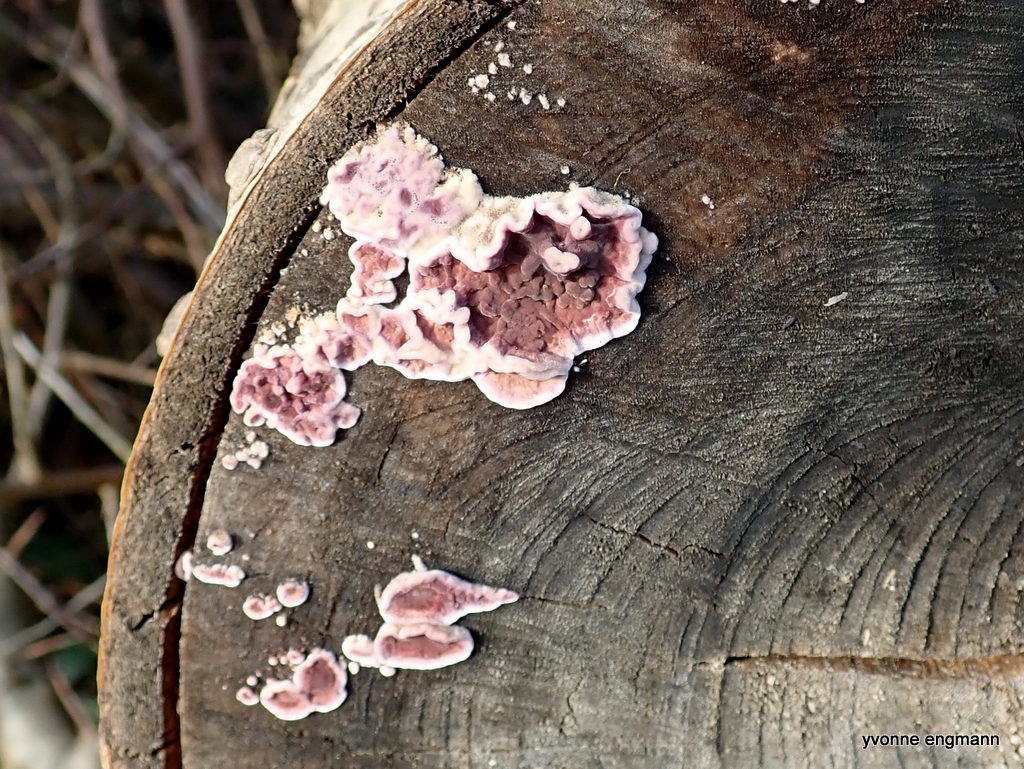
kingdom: Fungi
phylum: Basidiomycota
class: Agaricomycetes
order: Agaricales
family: Cyphellaceae
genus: Chondrostereum
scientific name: Chondrostereum purpureum
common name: purpurlædersvamp
